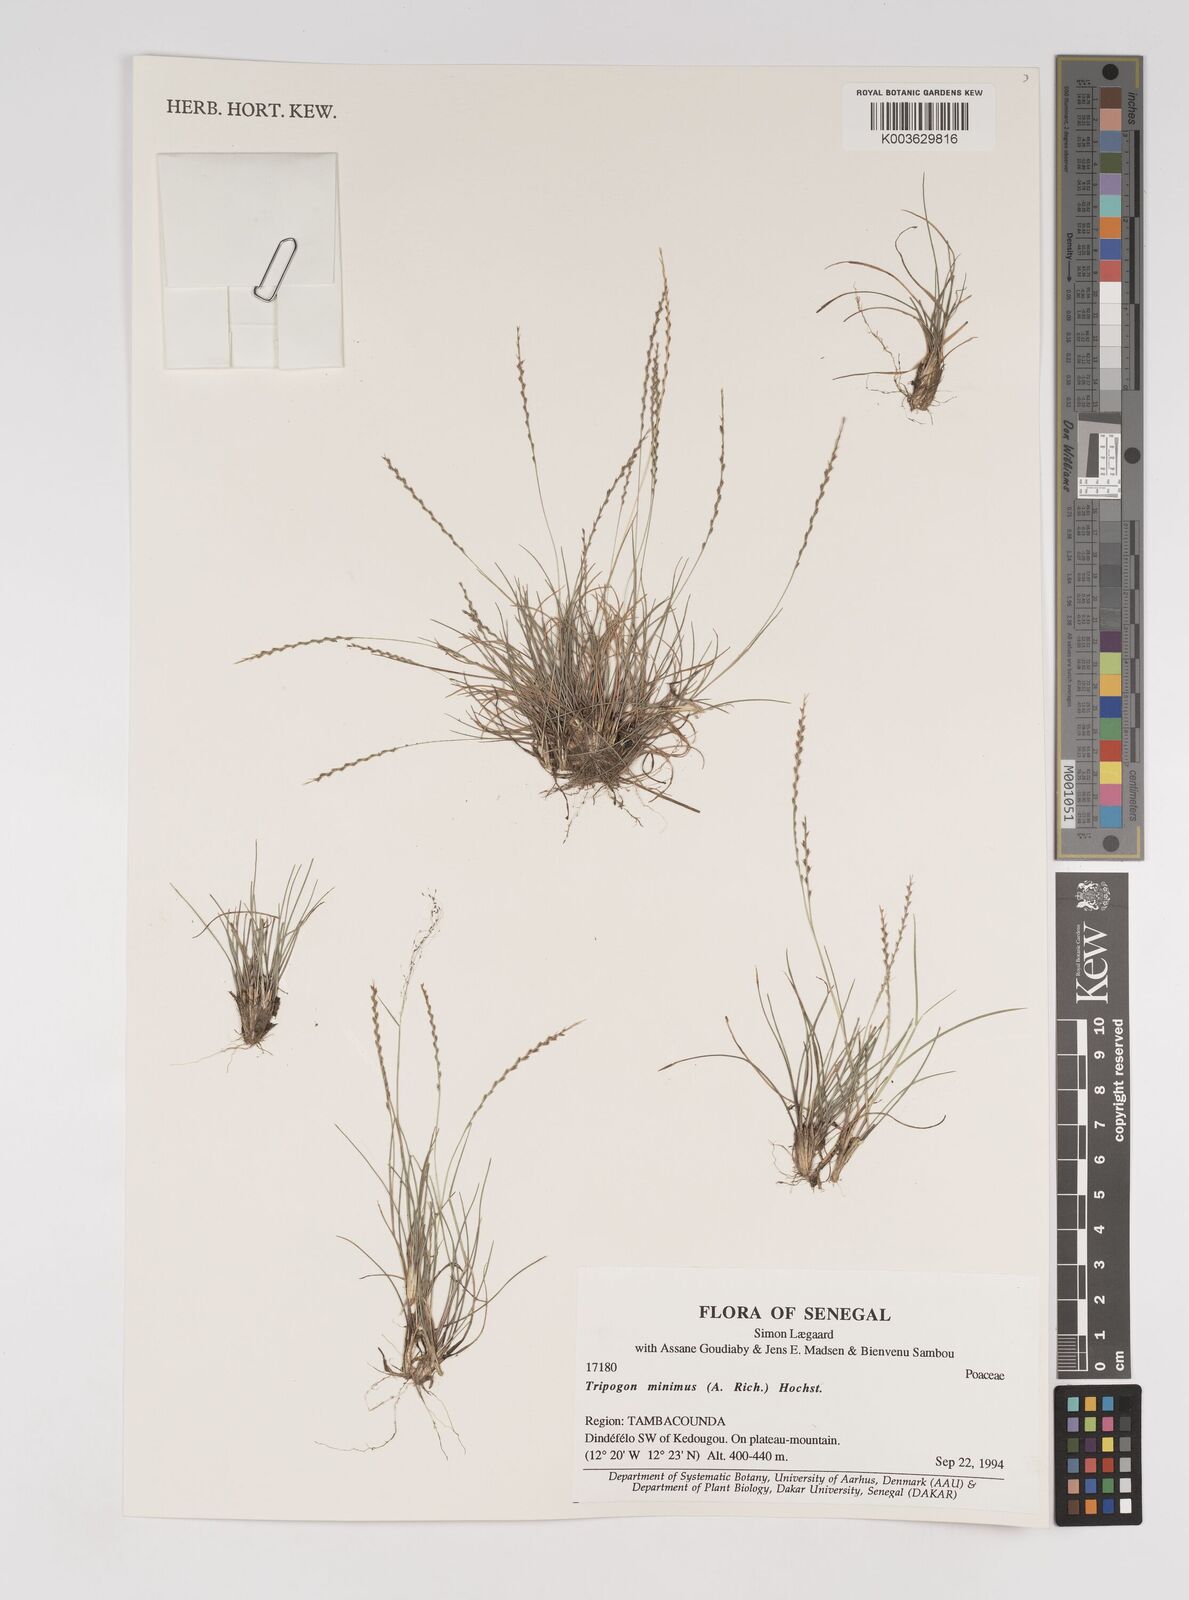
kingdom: Plantae
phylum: Tracheophyta
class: Liliopsida
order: Poales
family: Poaceae
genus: Tripogonella
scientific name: Tripogonella minima
